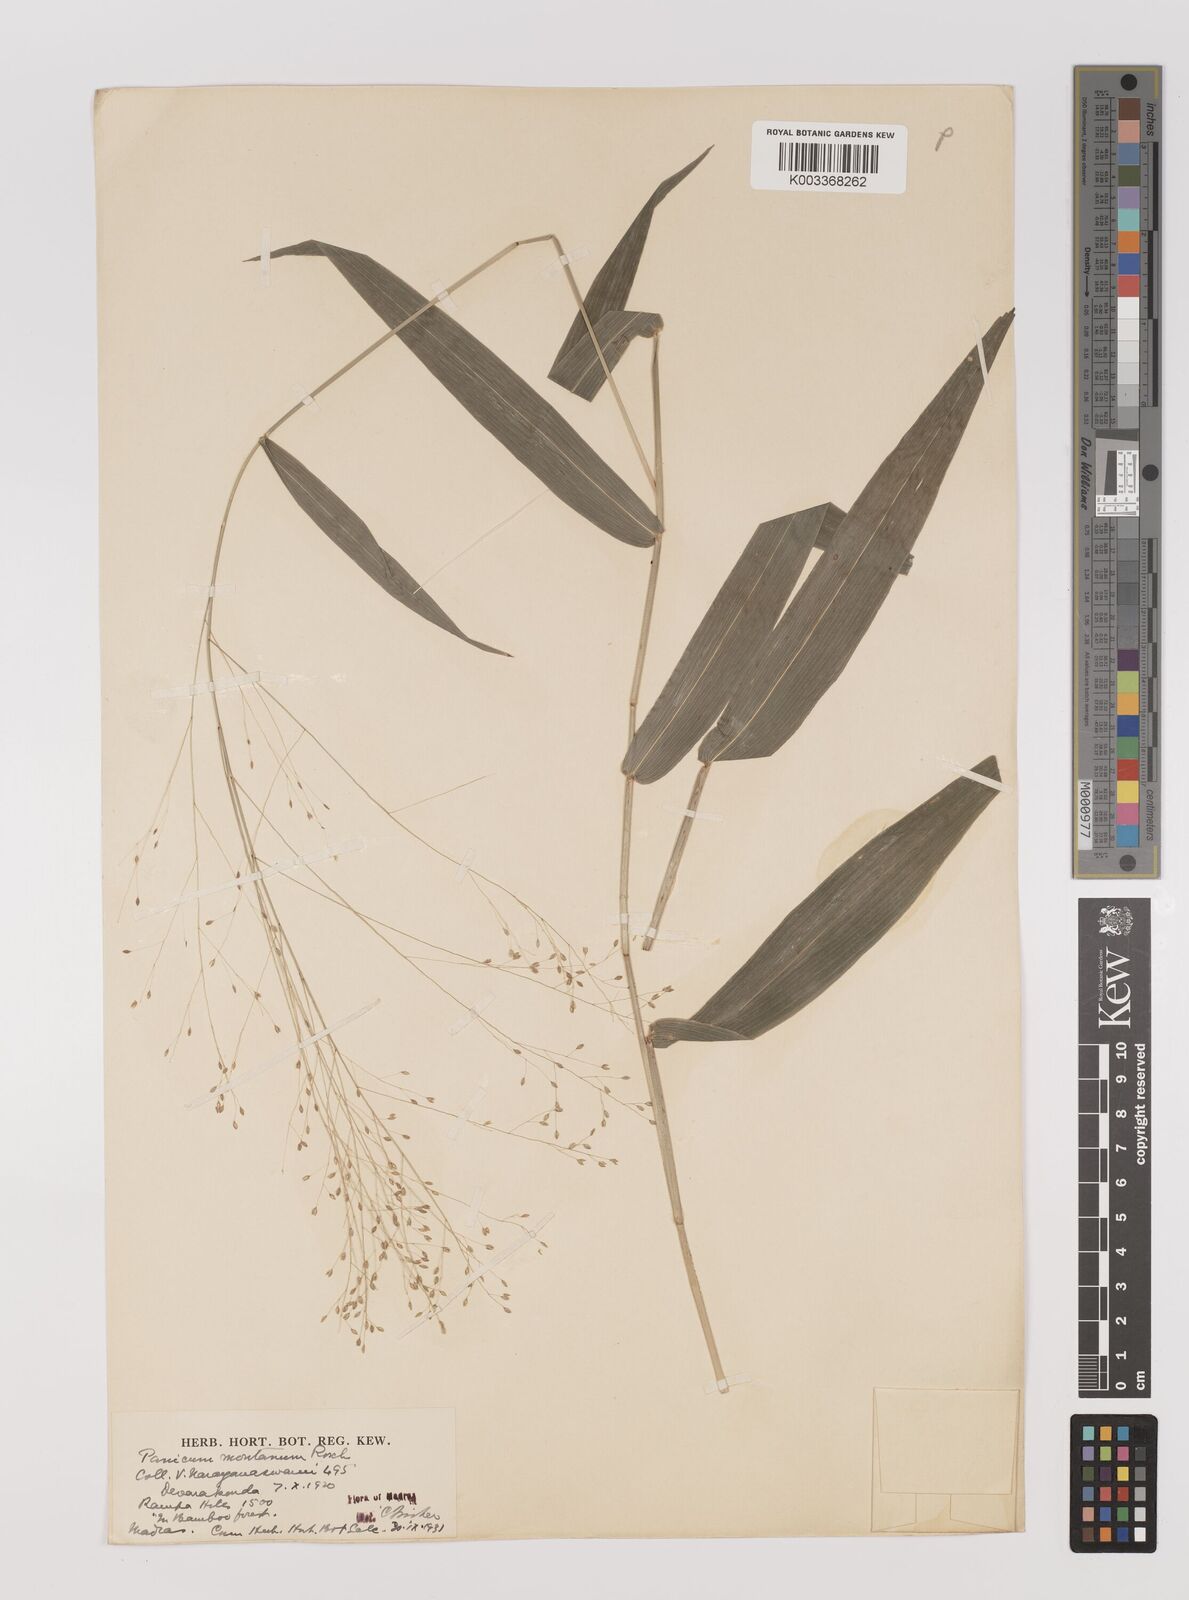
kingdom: Plantae
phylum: Tracheophyta
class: Liliopsida
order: Poales
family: Poaceae
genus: Panicum
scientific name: Panicum notatum
